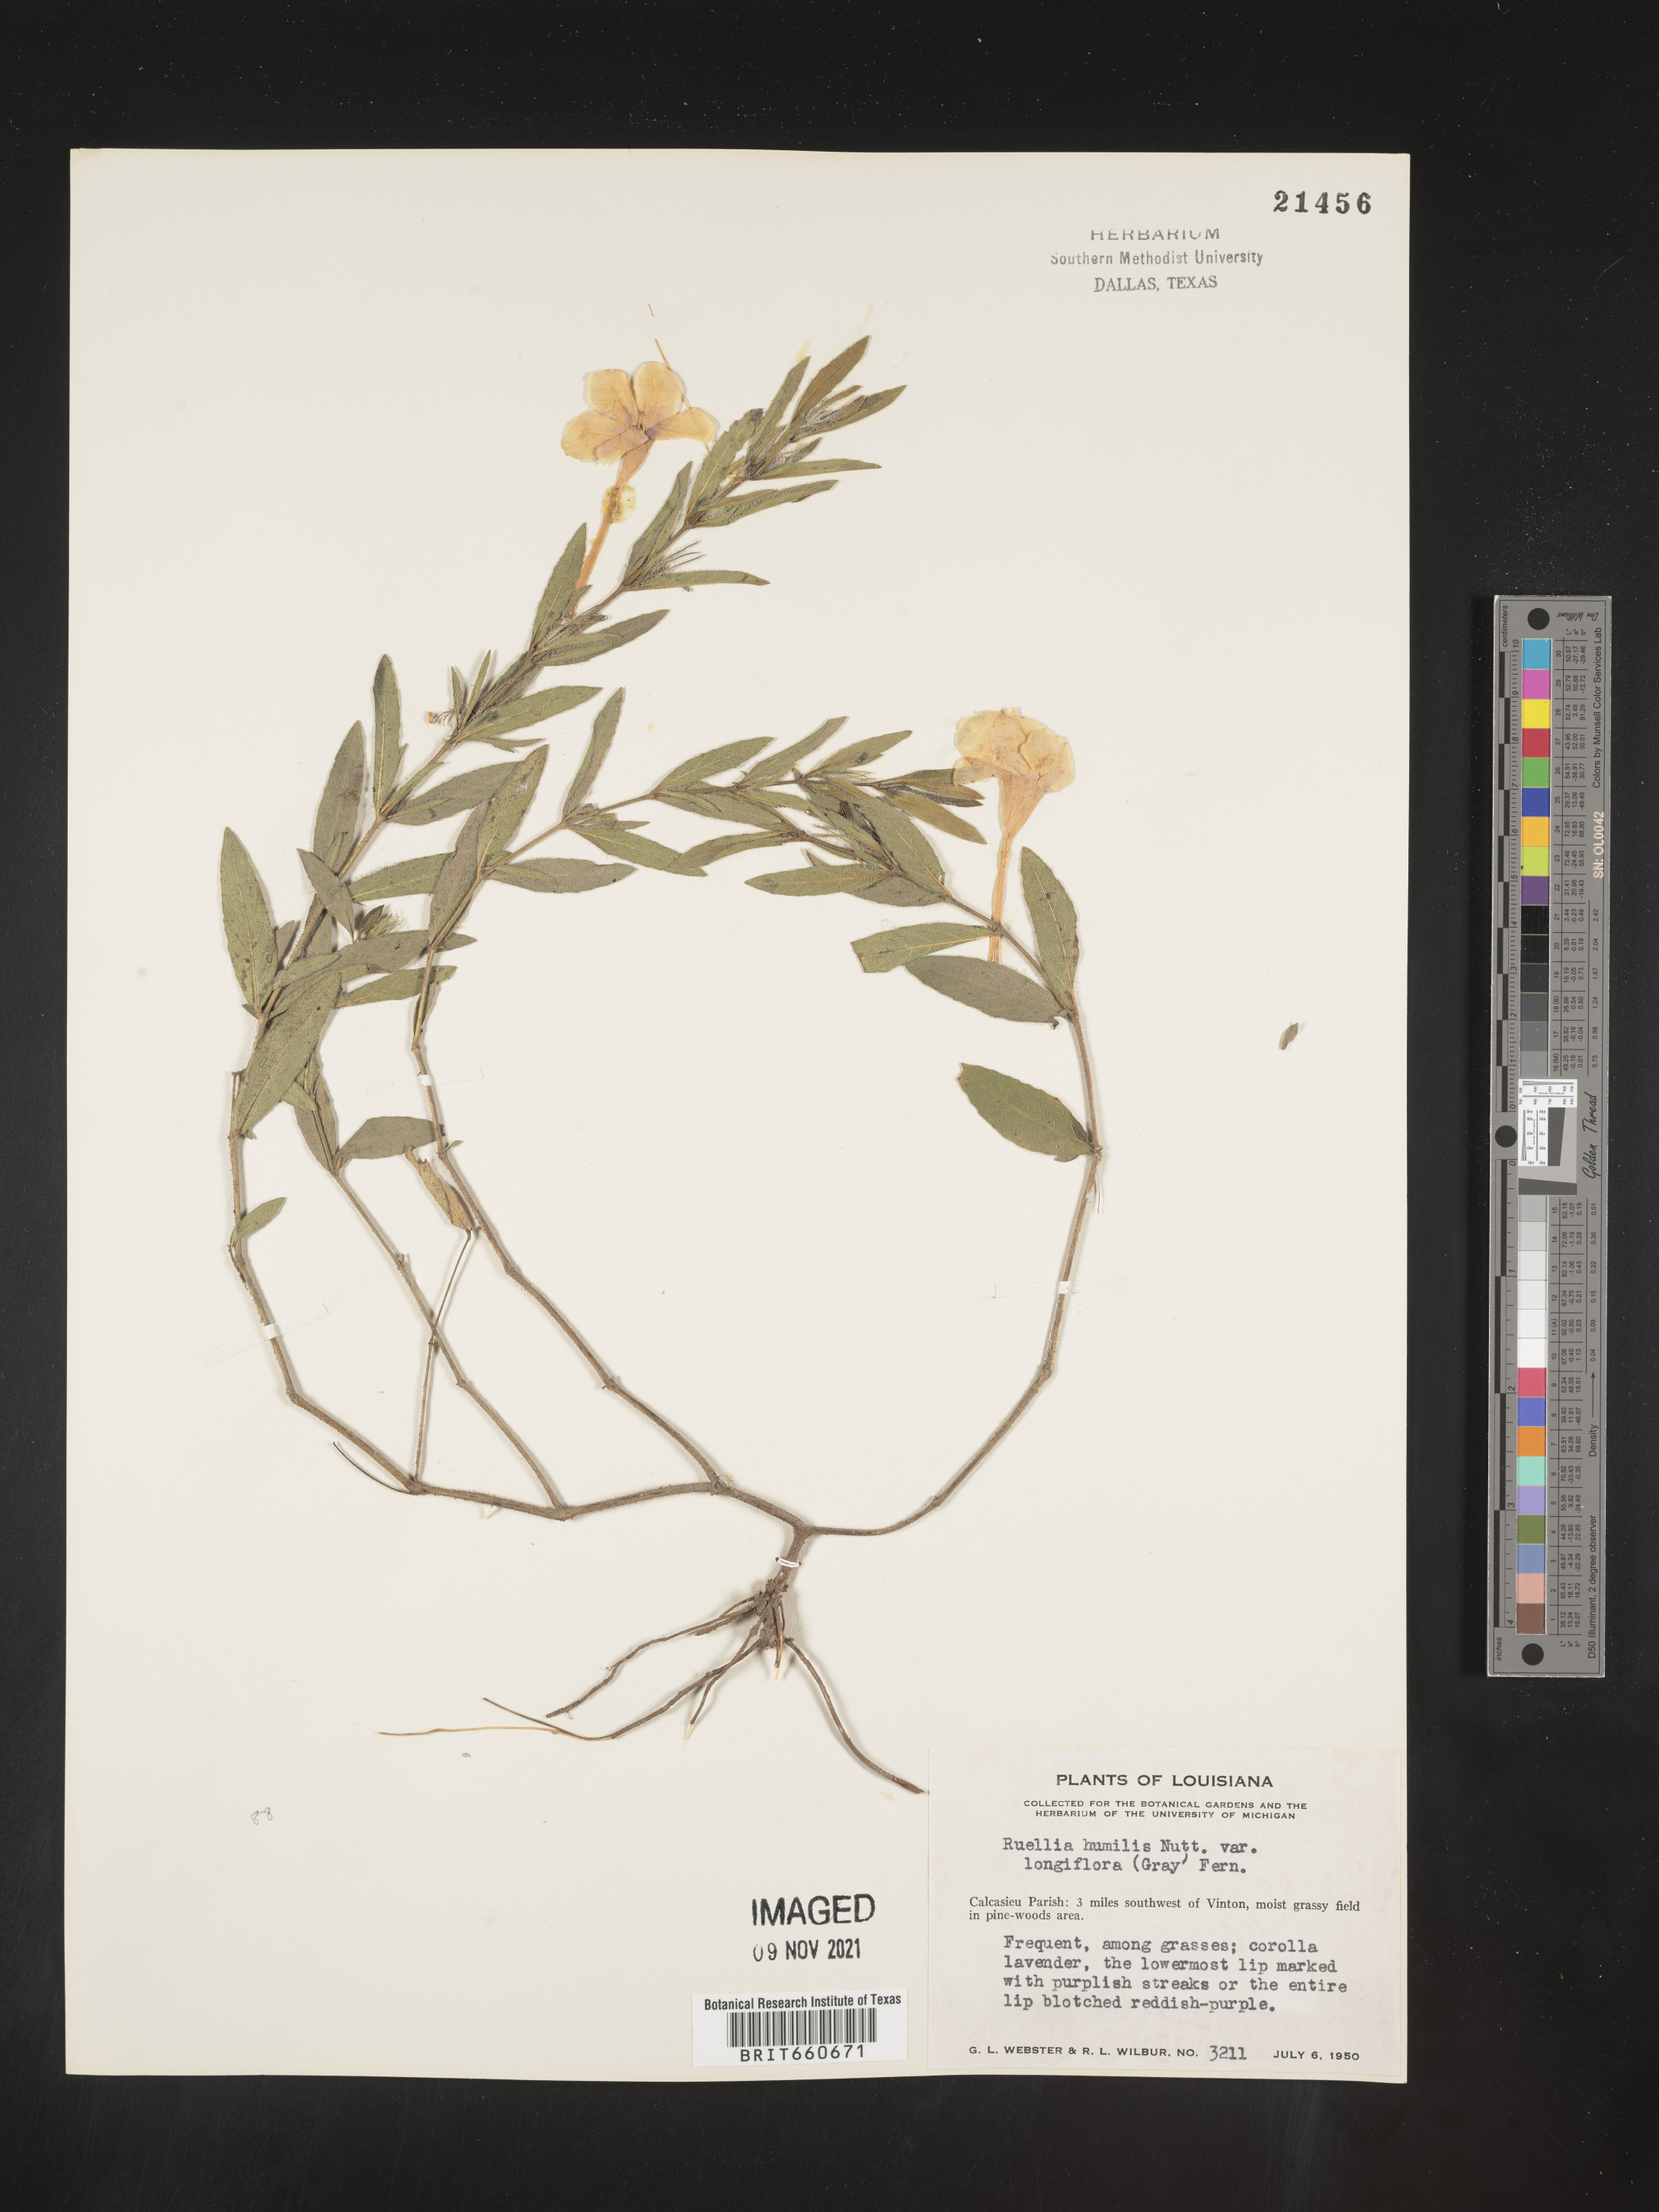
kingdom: Plantae
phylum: Tracheophyta
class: Magnoliopsida
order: Lamiales
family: Acanthaceae
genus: Ruellia
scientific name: Ruellia humilis
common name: Fringe-leaf ruellia
